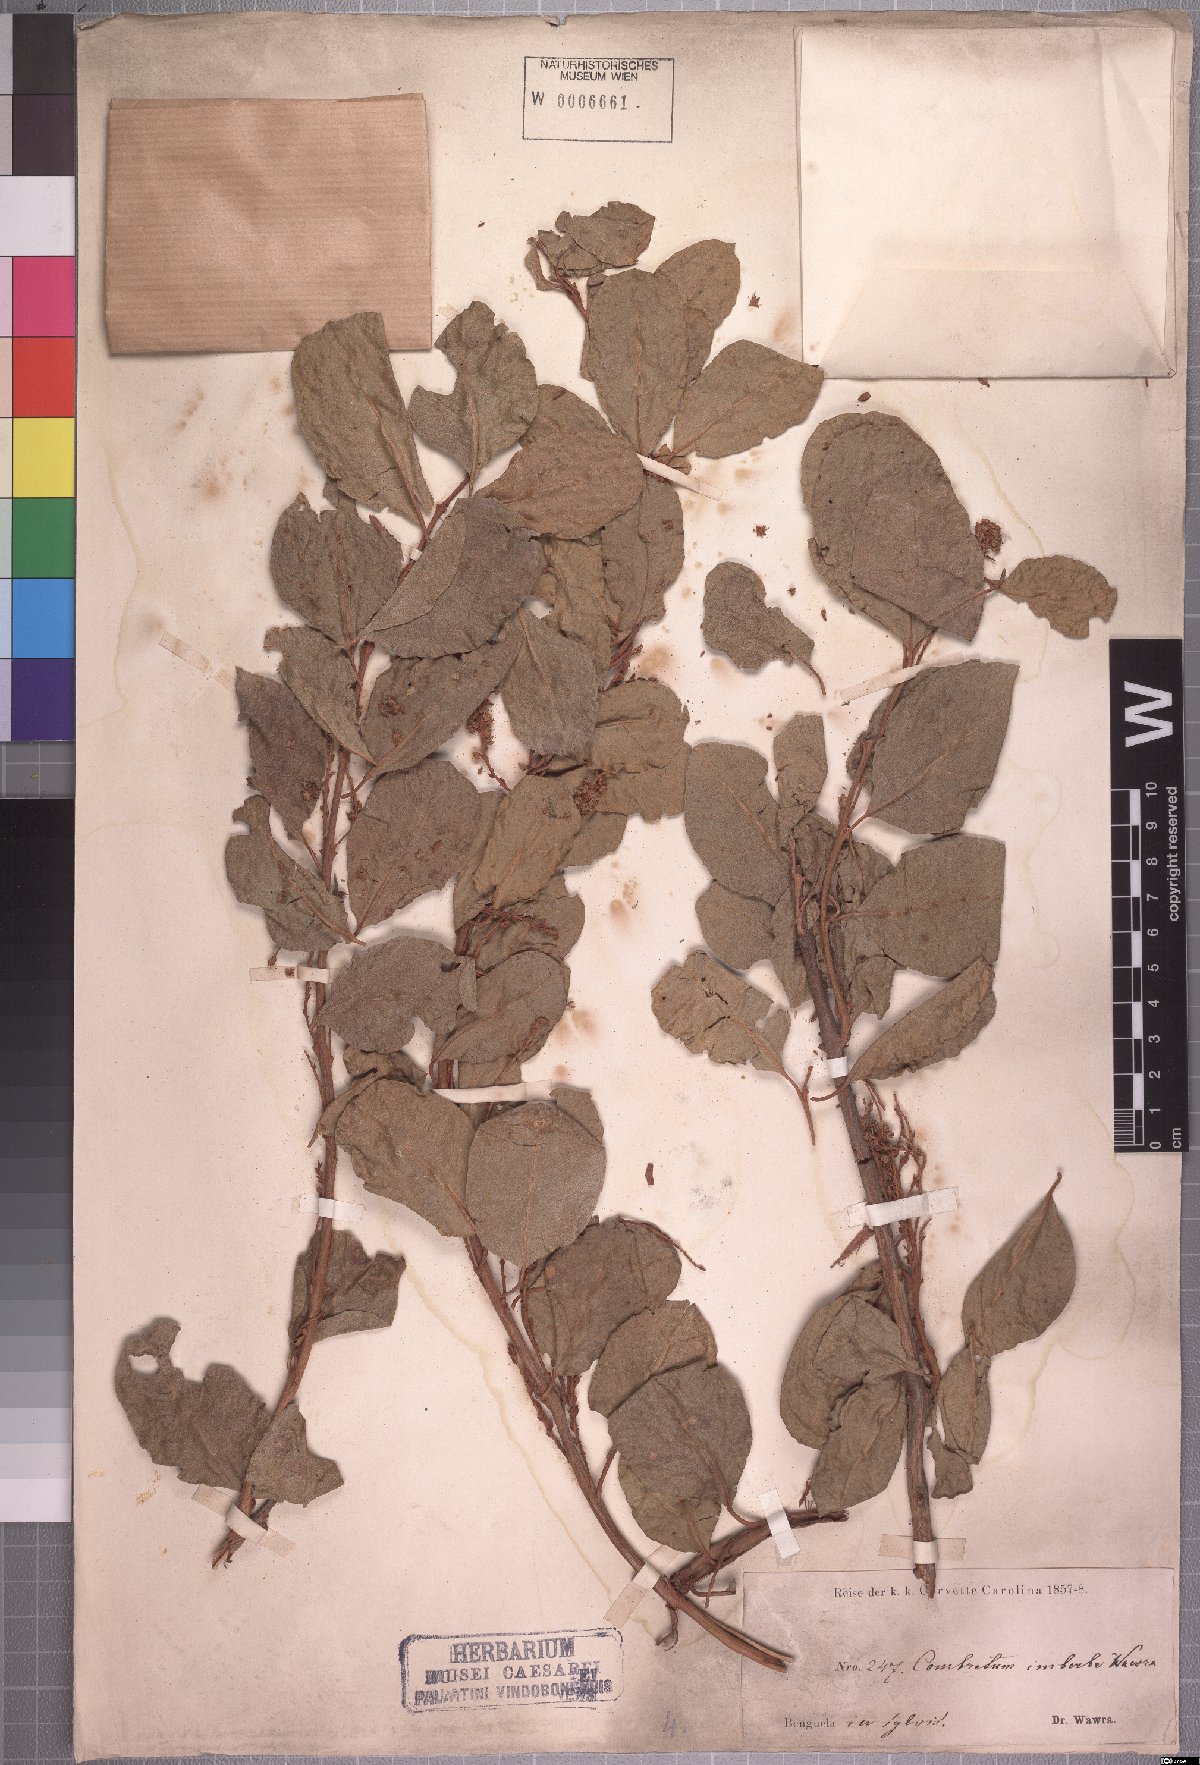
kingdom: Plantae
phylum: Tracheophyta
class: Magnoliopsida
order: Myrtales
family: Combretaceae
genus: Combretum
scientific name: Combretum imberbe
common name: Leadwood
